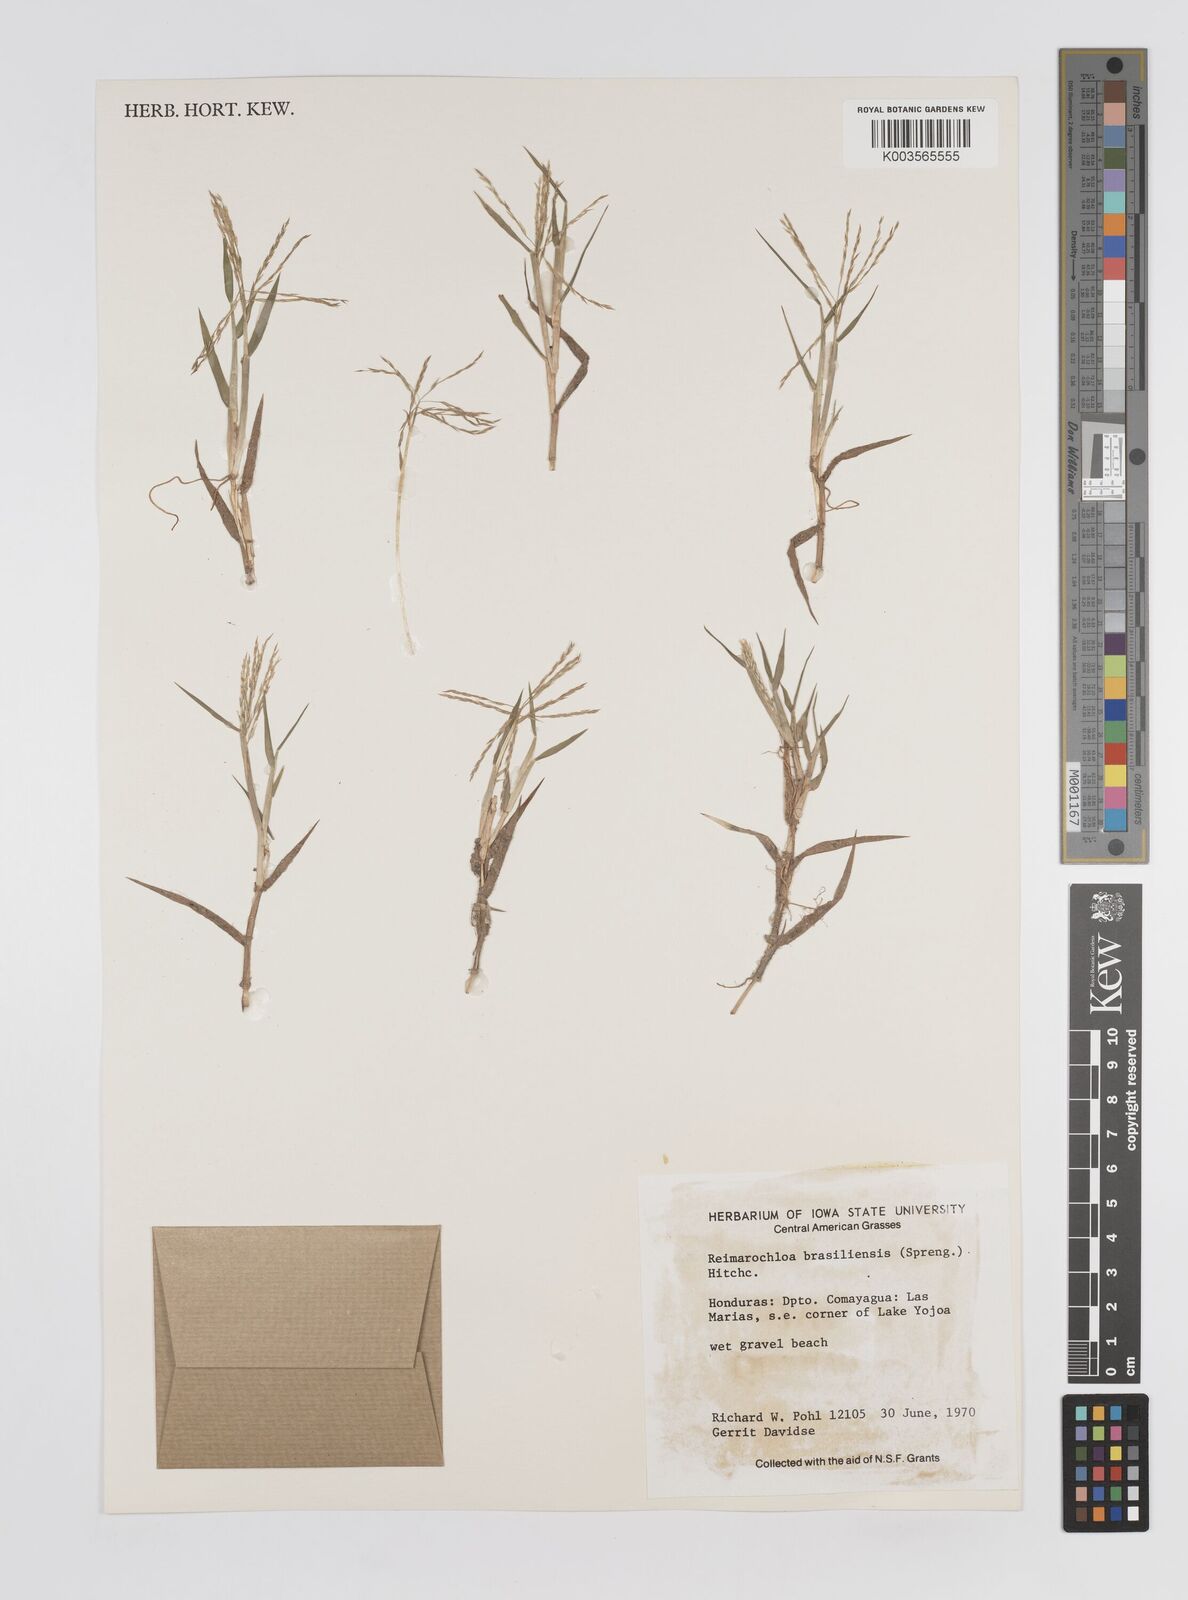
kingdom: Plantae
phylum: Tracheophyta
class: Liliopsida
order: Poales
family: Poaceae
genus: Paspalum
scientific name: Paspalum stagnophilum
